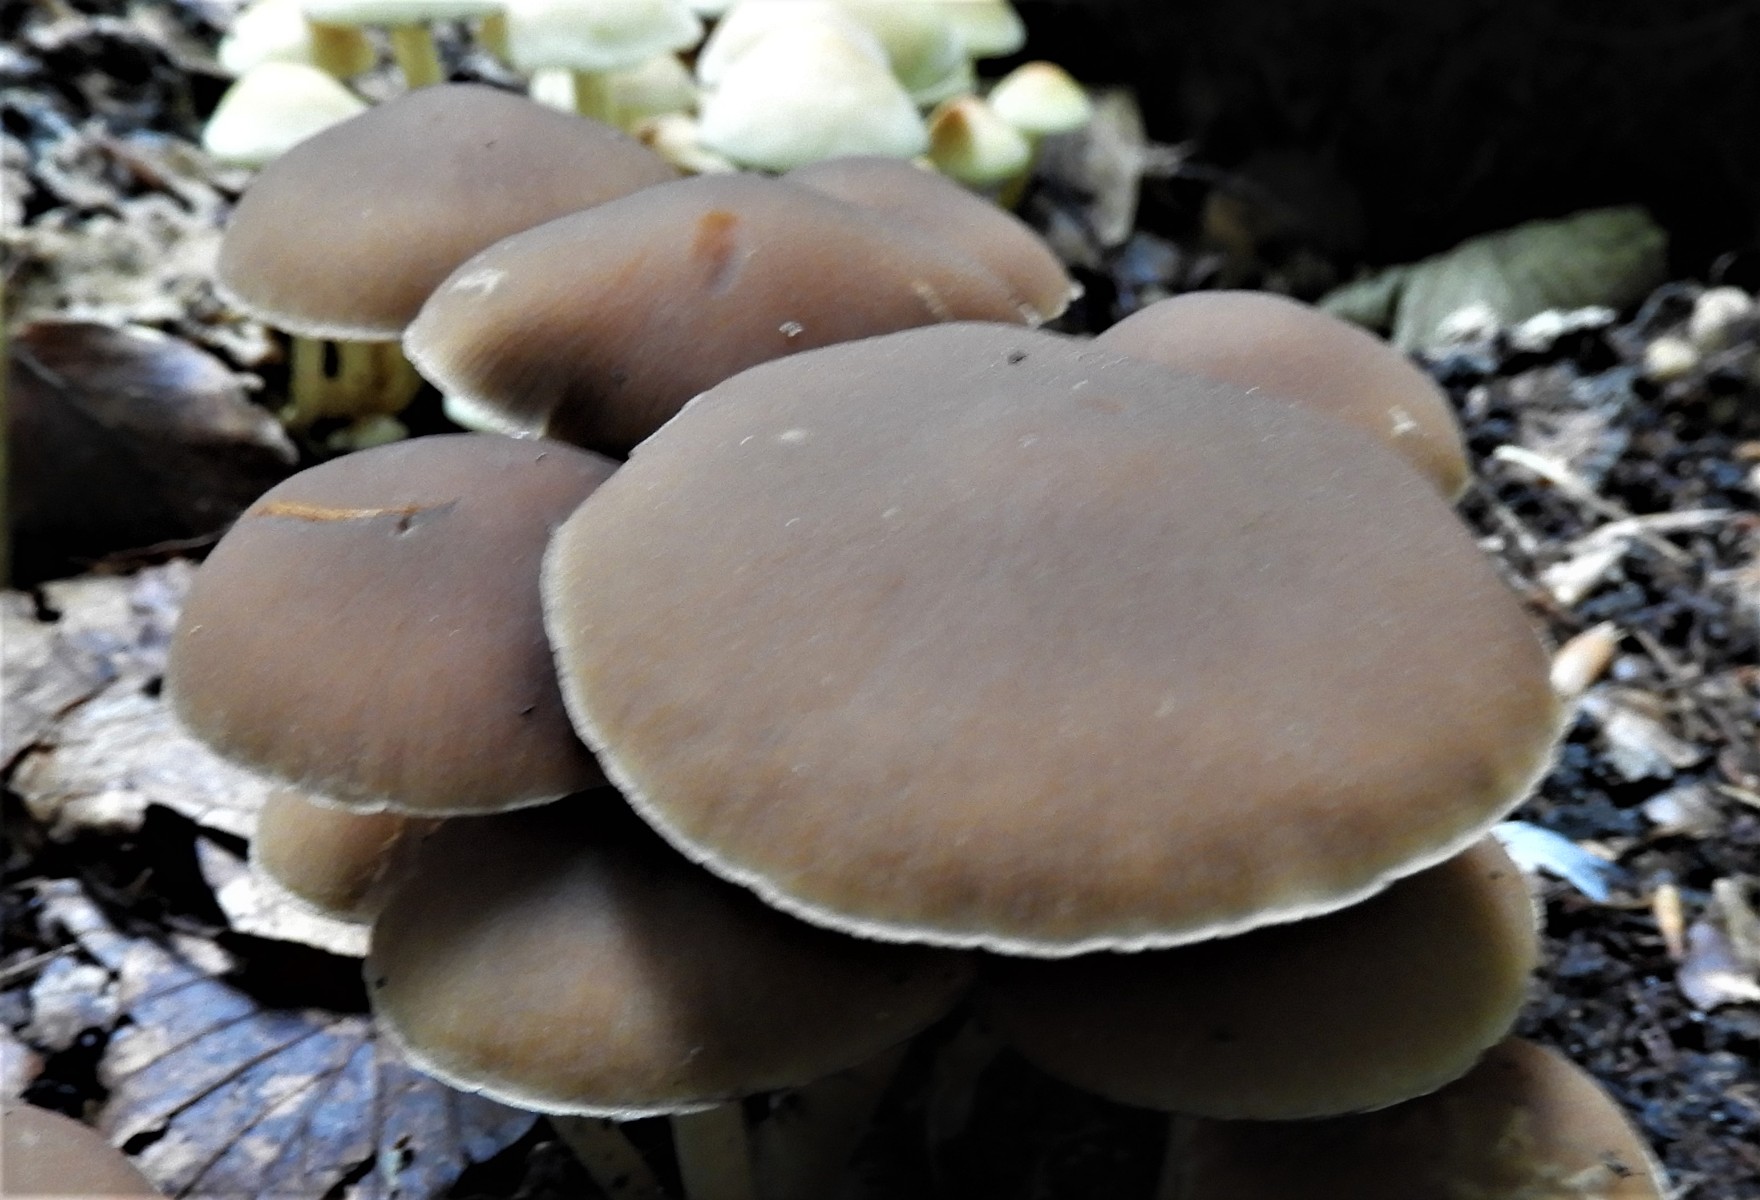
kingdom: Fungi
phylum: Basidiomycota
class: Agaricomycetes
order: Agaricales
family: Psathyrellaceae
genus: Psathyrella
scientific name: Psathyrella piluliformis
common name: lysstokket mørkhat
